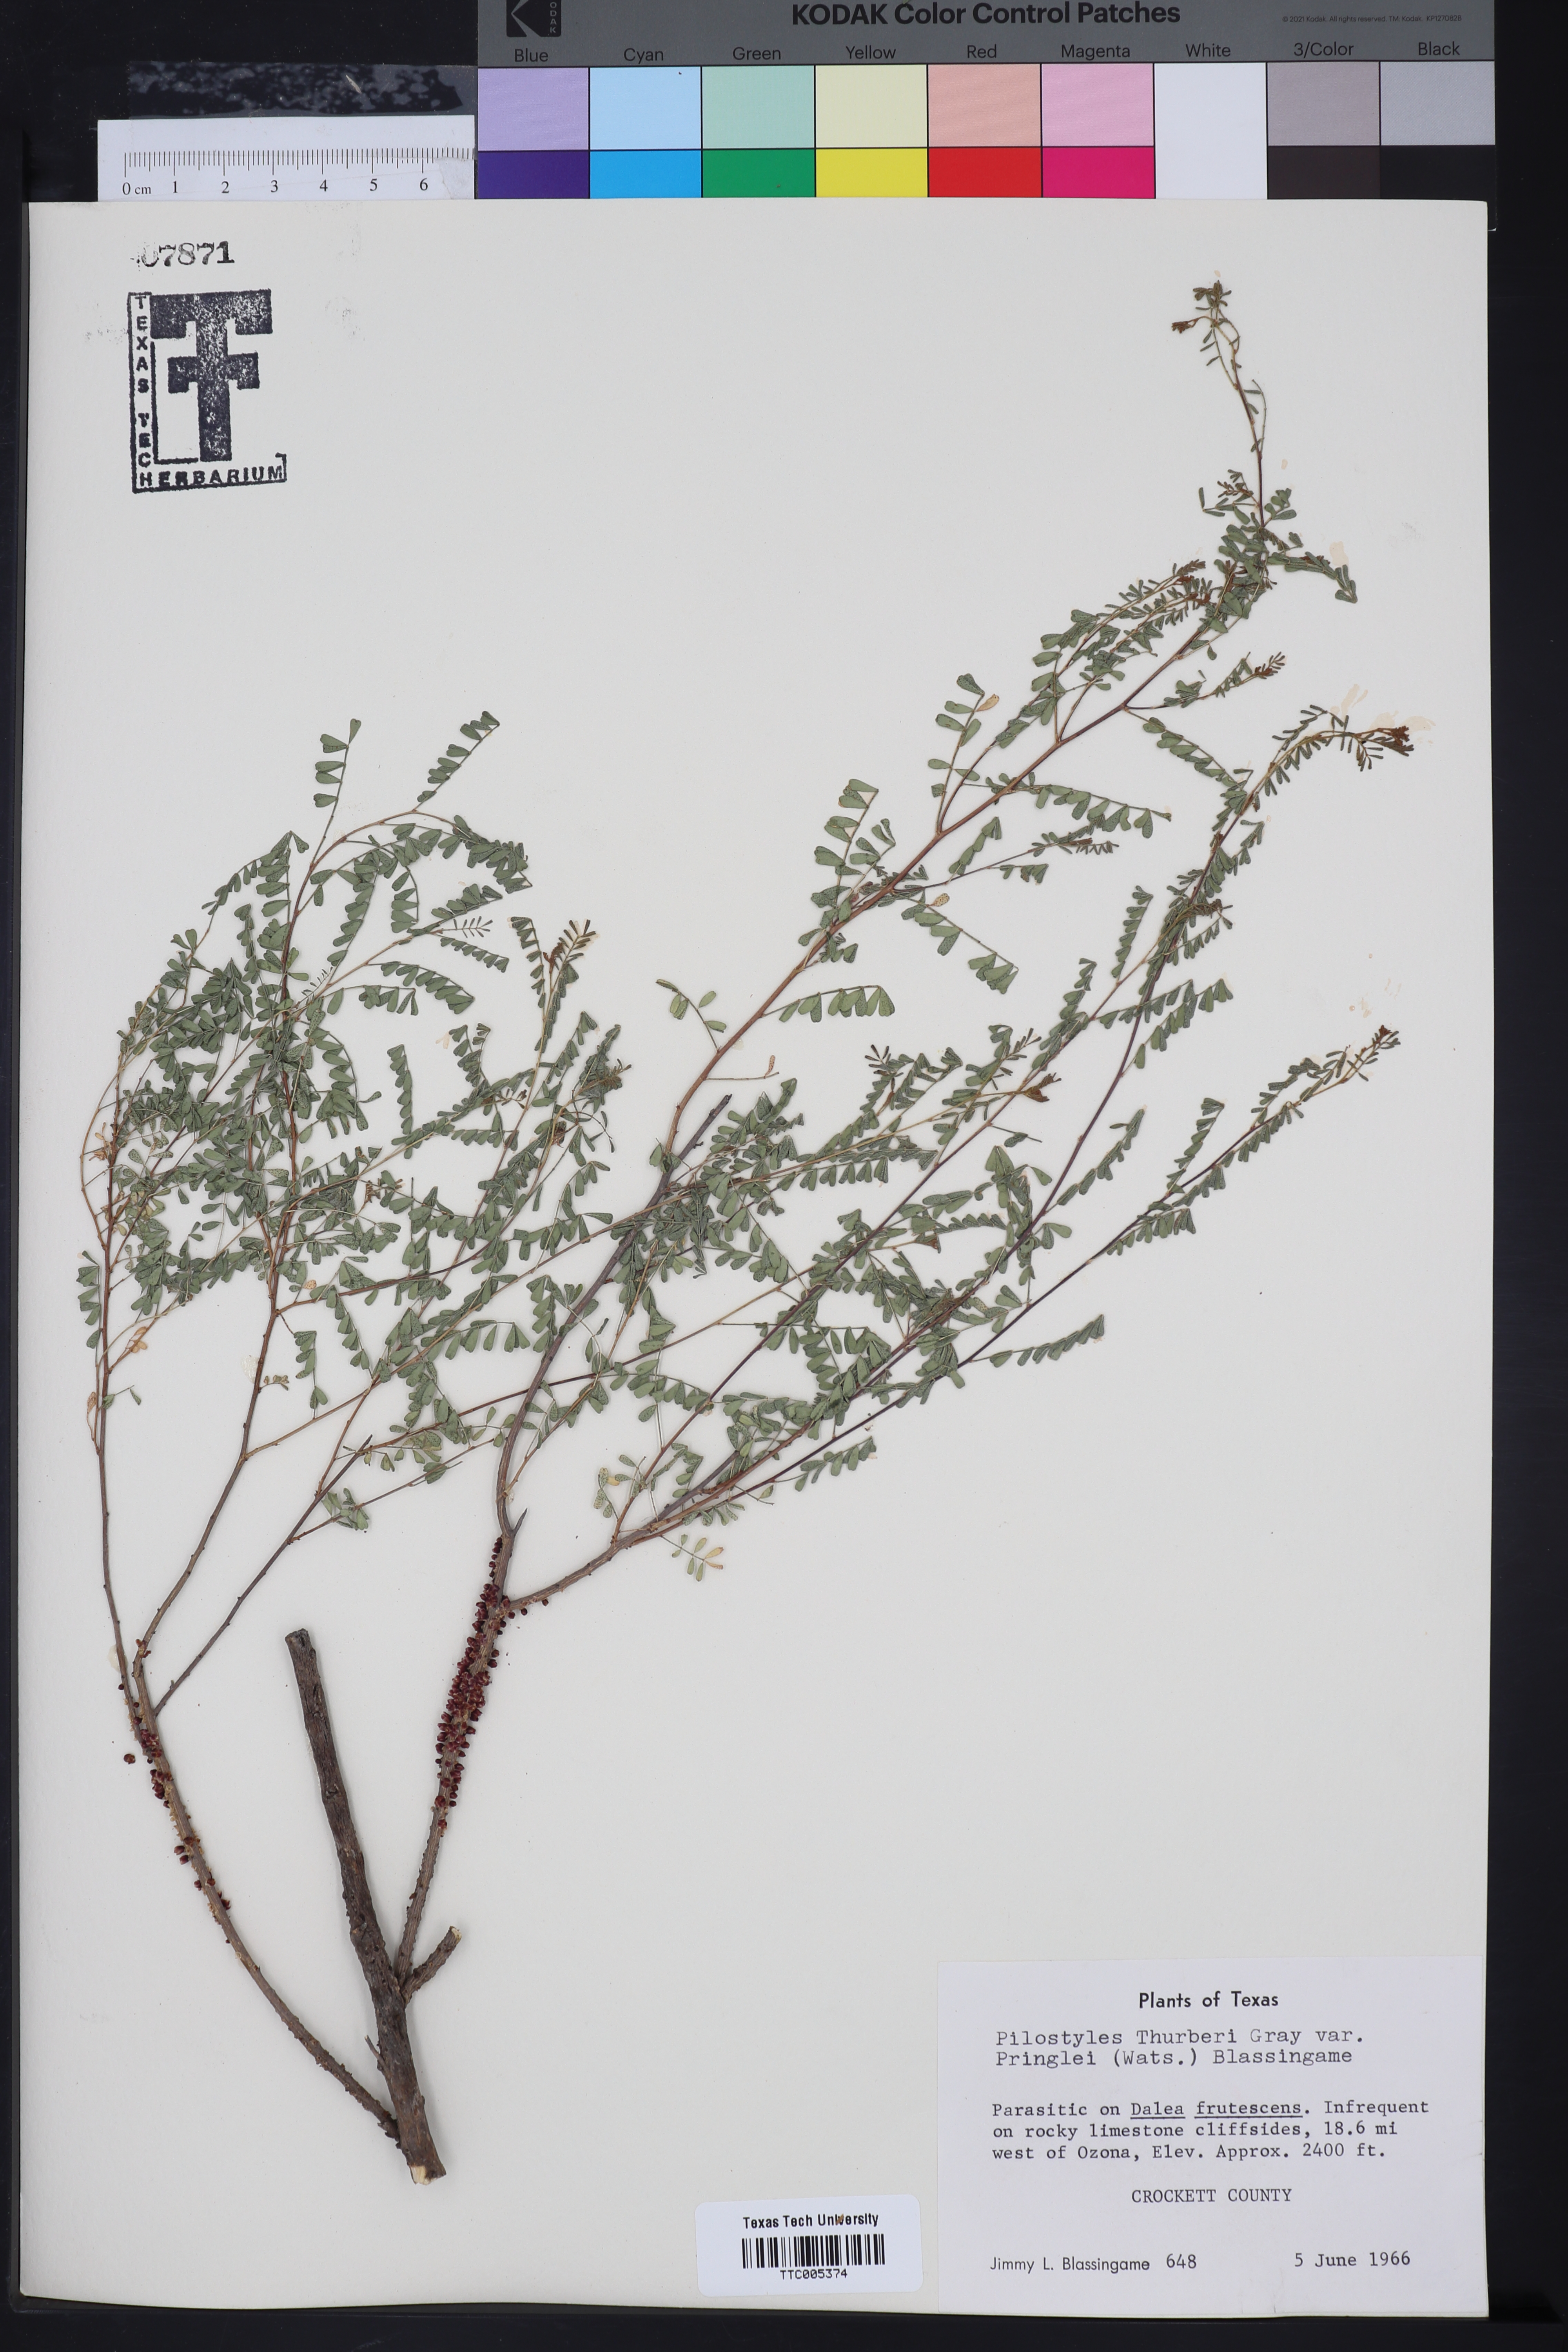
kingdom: Plantae
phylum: Tracheophyta
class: Magnoliopsida
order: Cucurbitales
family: Apodanthaceae
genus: Pilostyles
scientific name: Pilostyles thurberi
